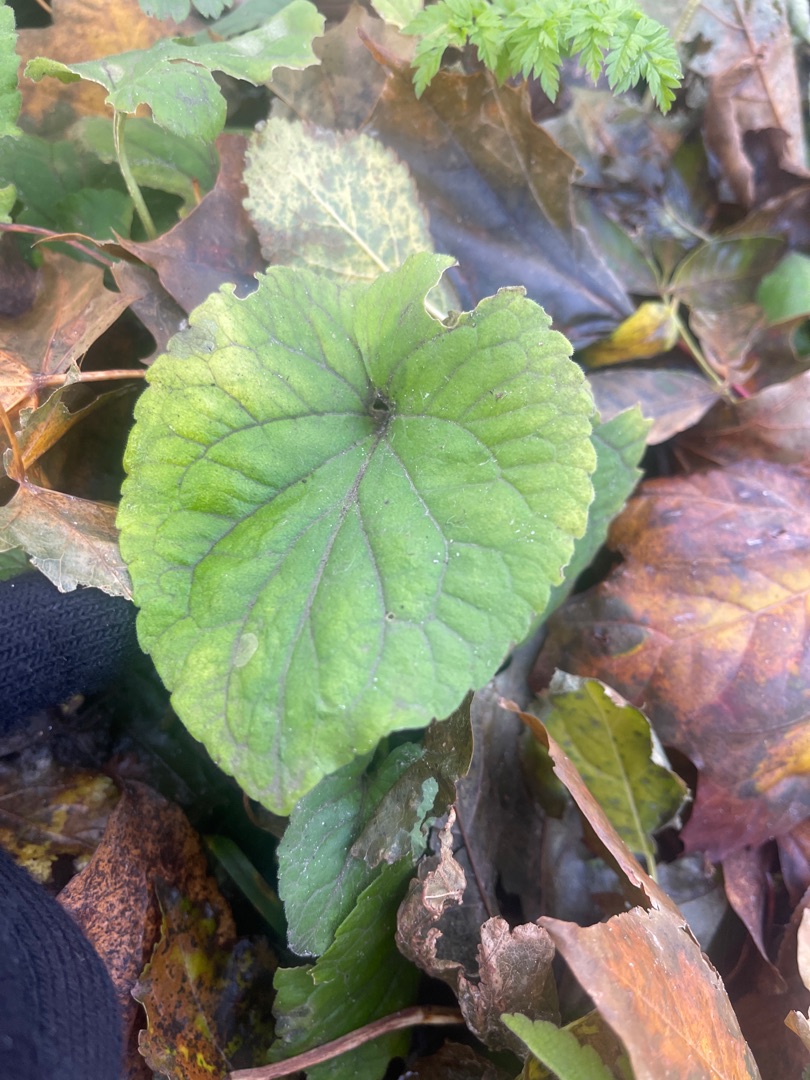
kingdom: Plantae
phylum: Tracheophyta
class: Magnoliopsida
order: Malpighiales
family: Violaceae
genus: Viola
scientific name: Viola odorata
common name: Marts-viol
